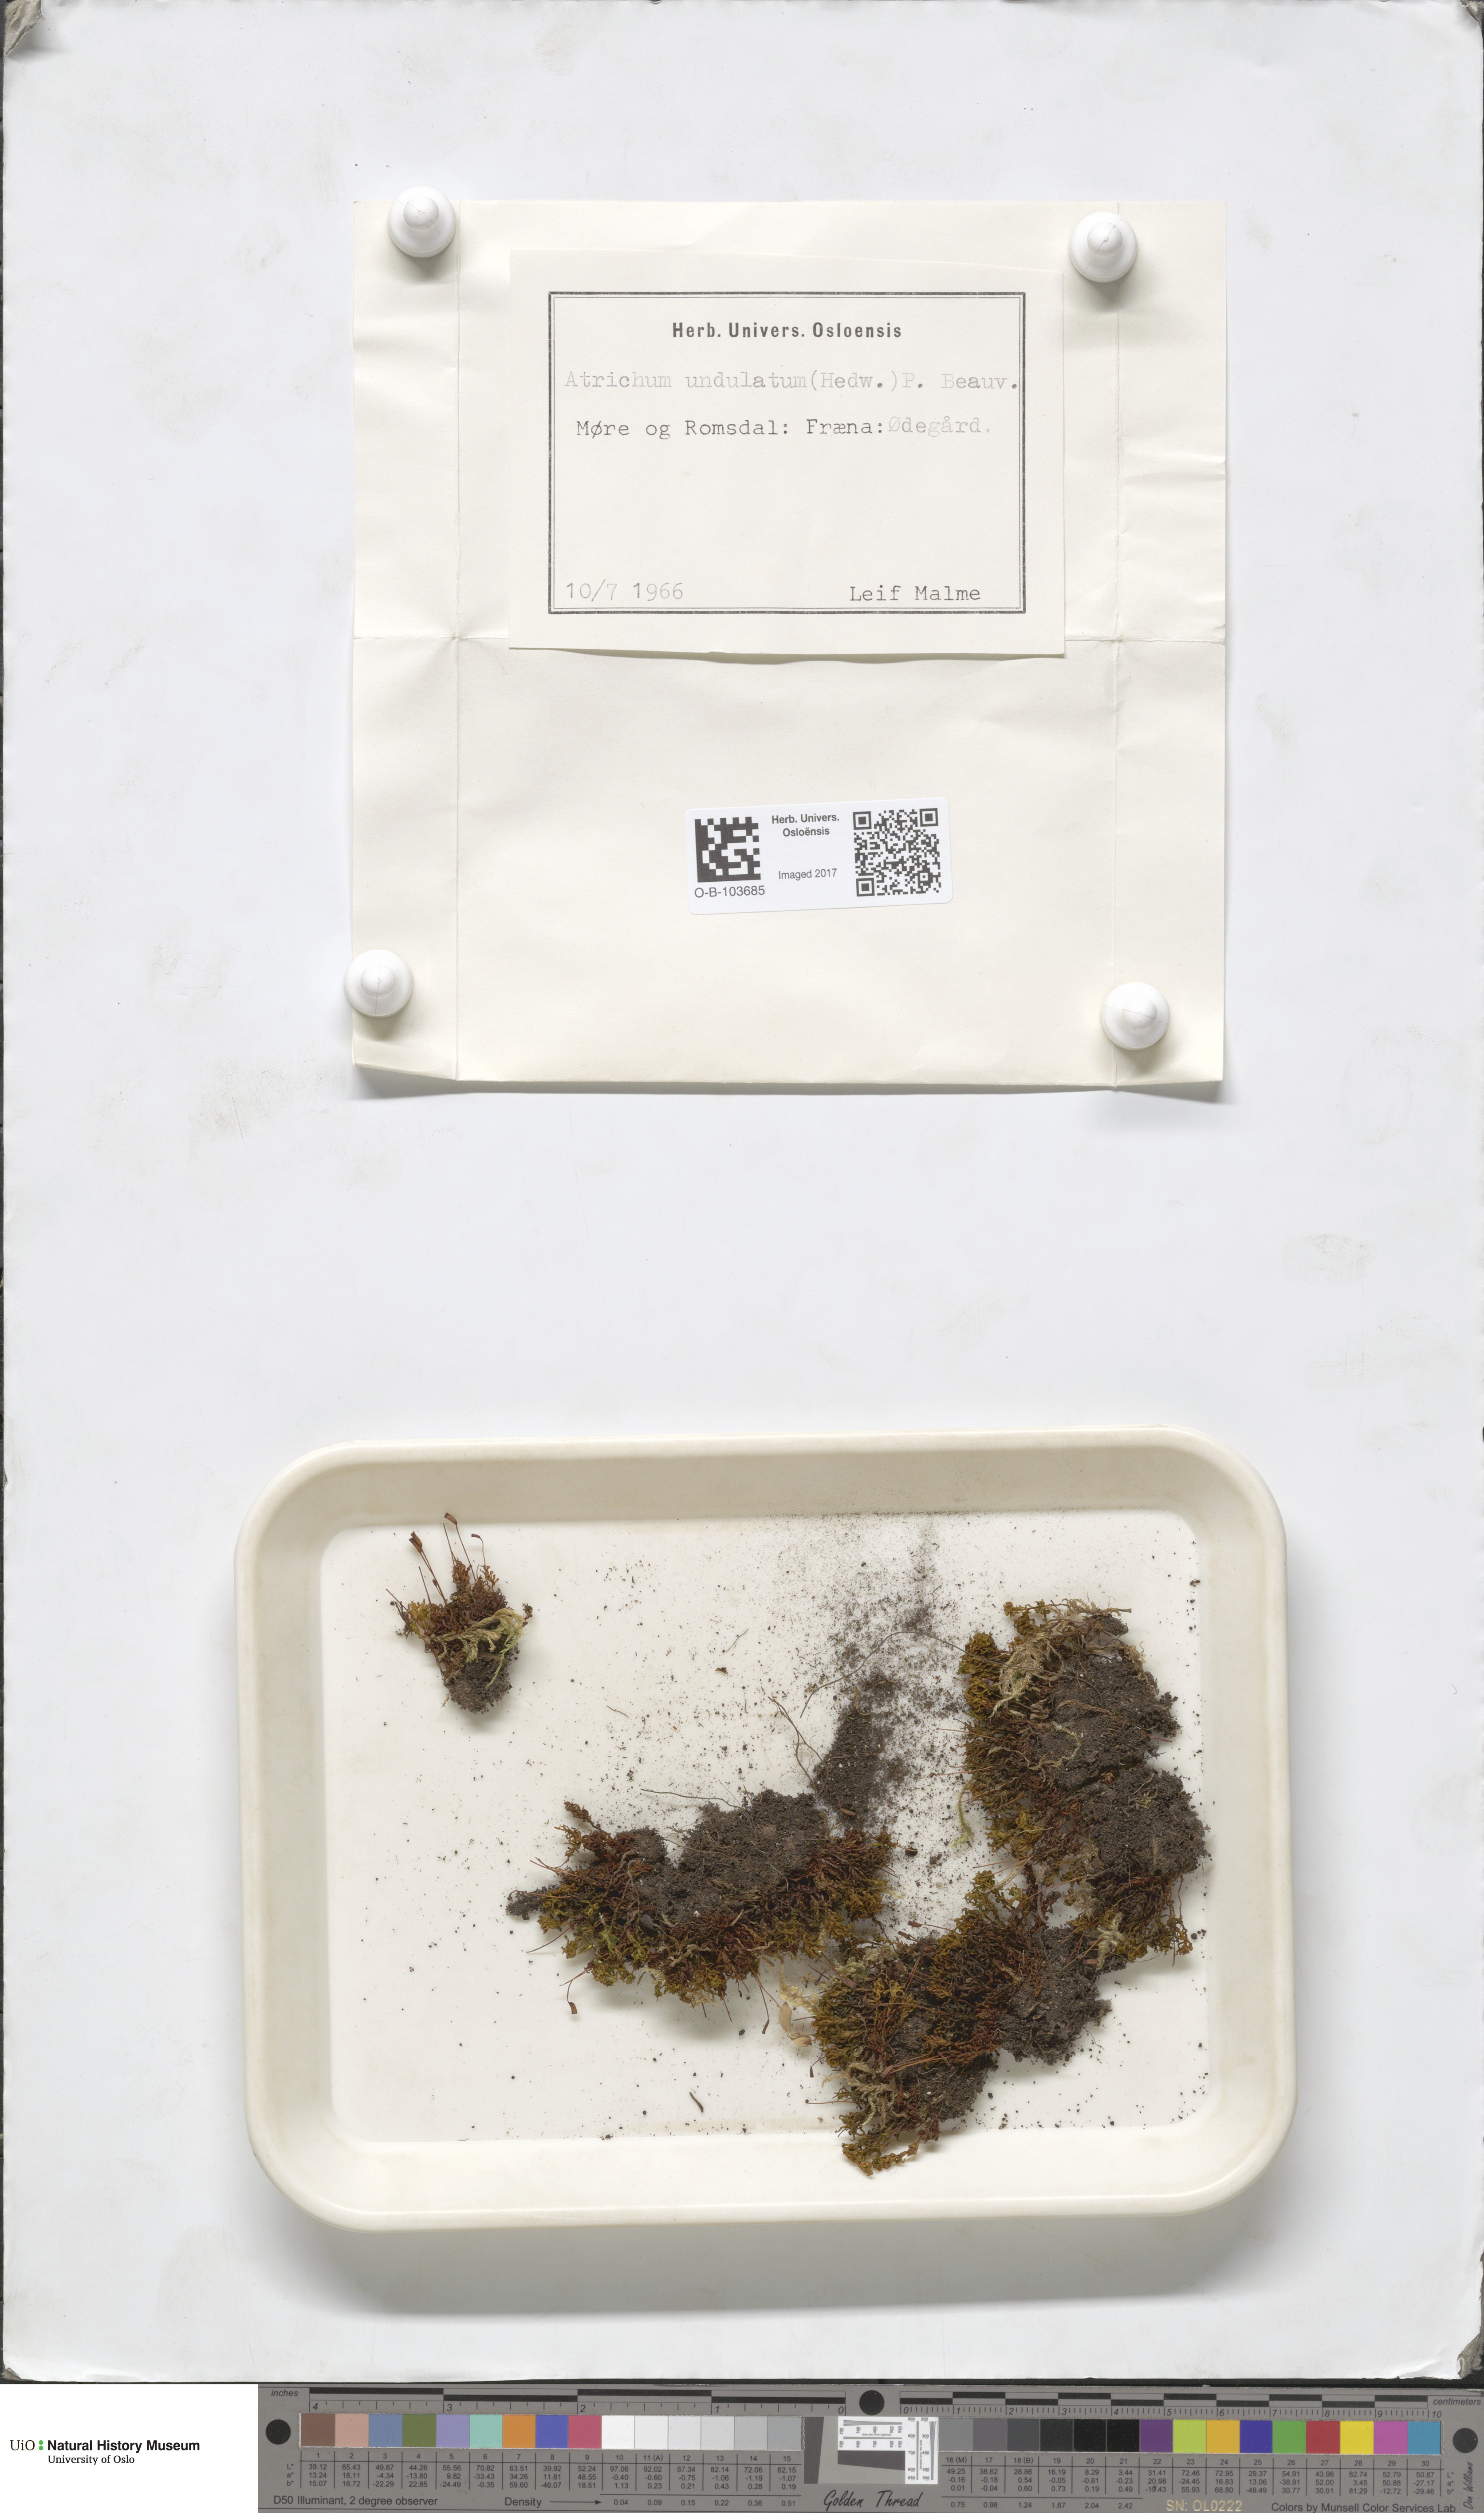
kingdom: Plantae
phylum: Bryophyta
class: Polytrichopsida
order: Polytrichales
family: Polytrichaceae
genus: Atrichum
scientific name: Atrichum undulatum
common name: Common smoothcap
